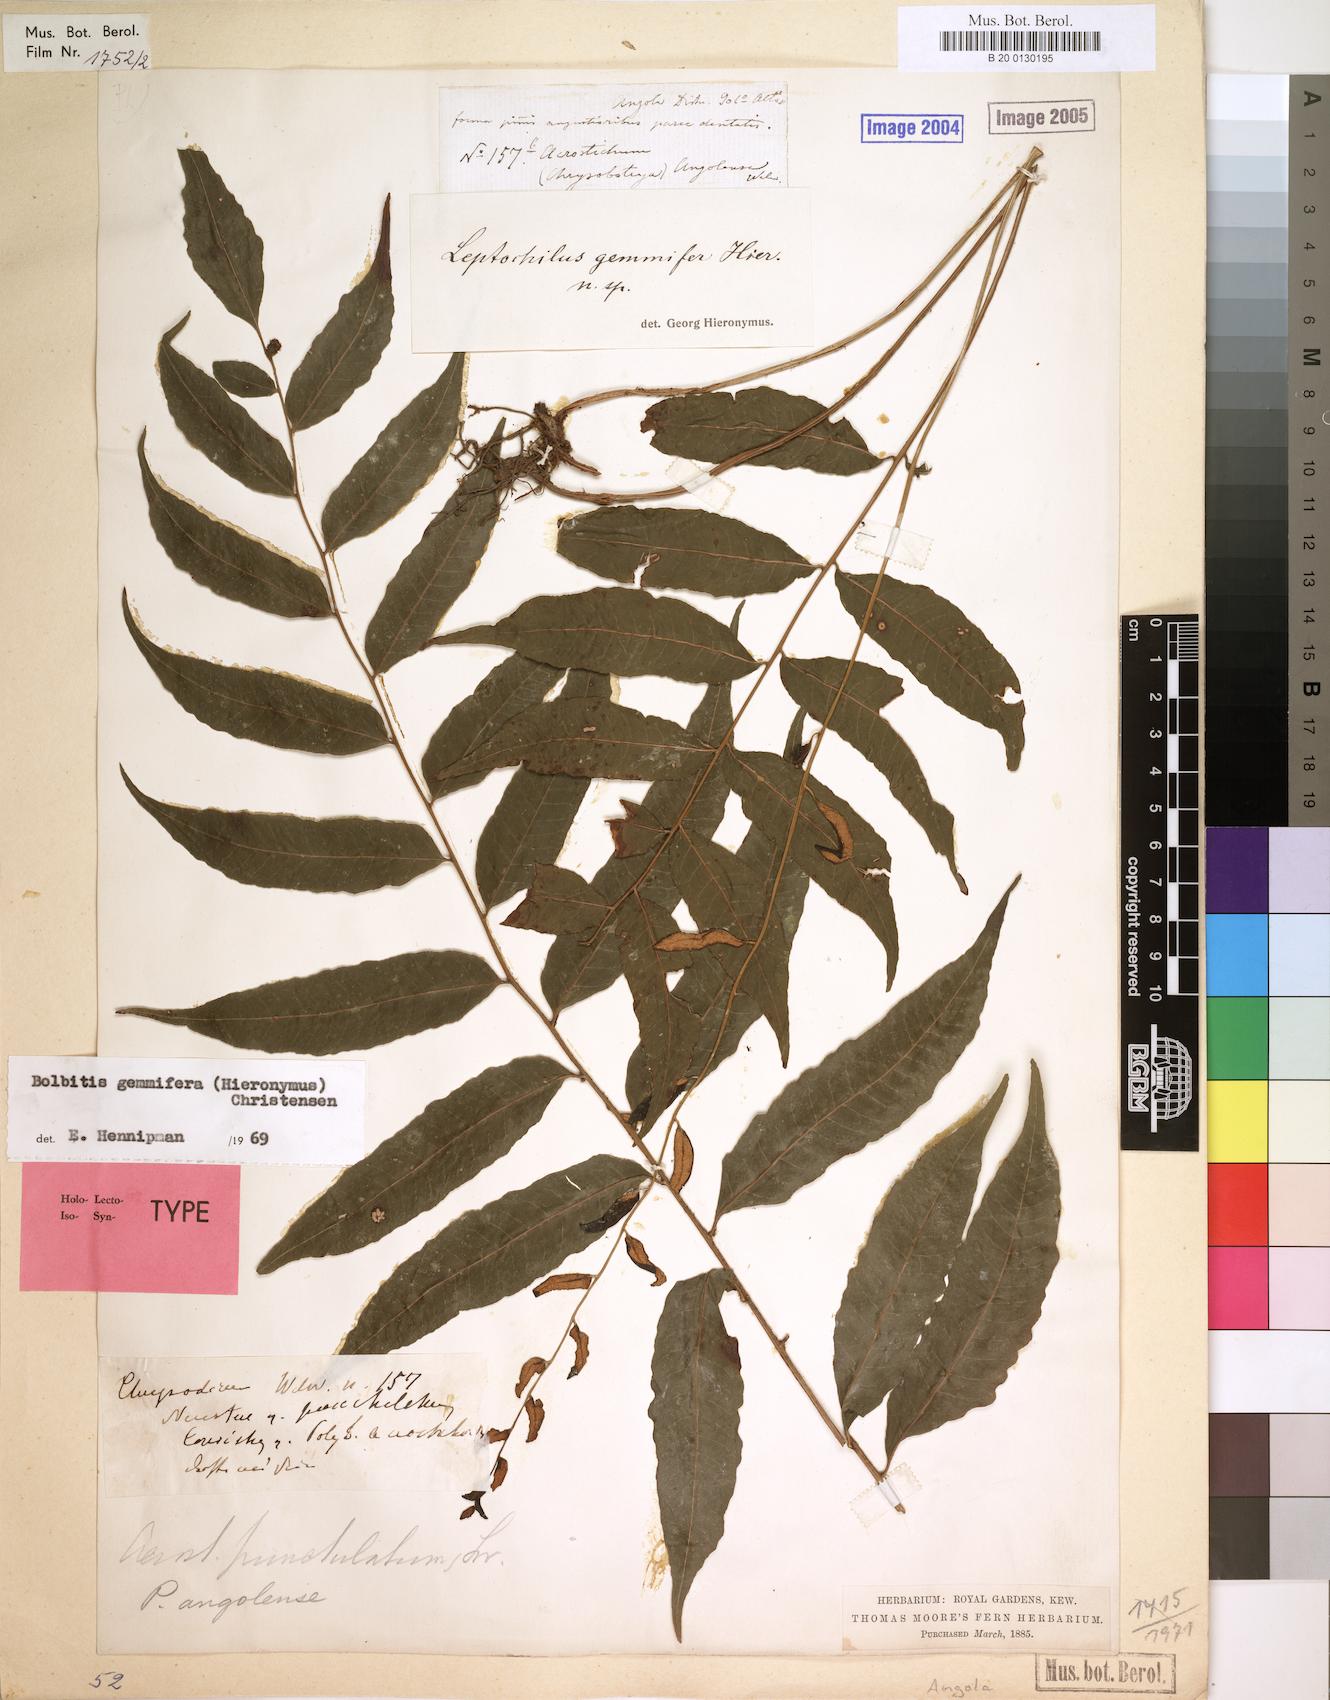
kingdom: Plantae
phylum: Tracheophyta
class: Polypodiopsida
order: Polypodiales
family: Dryopteridaceae
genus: Bolbitis
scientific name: Bolbitis gemmifer
